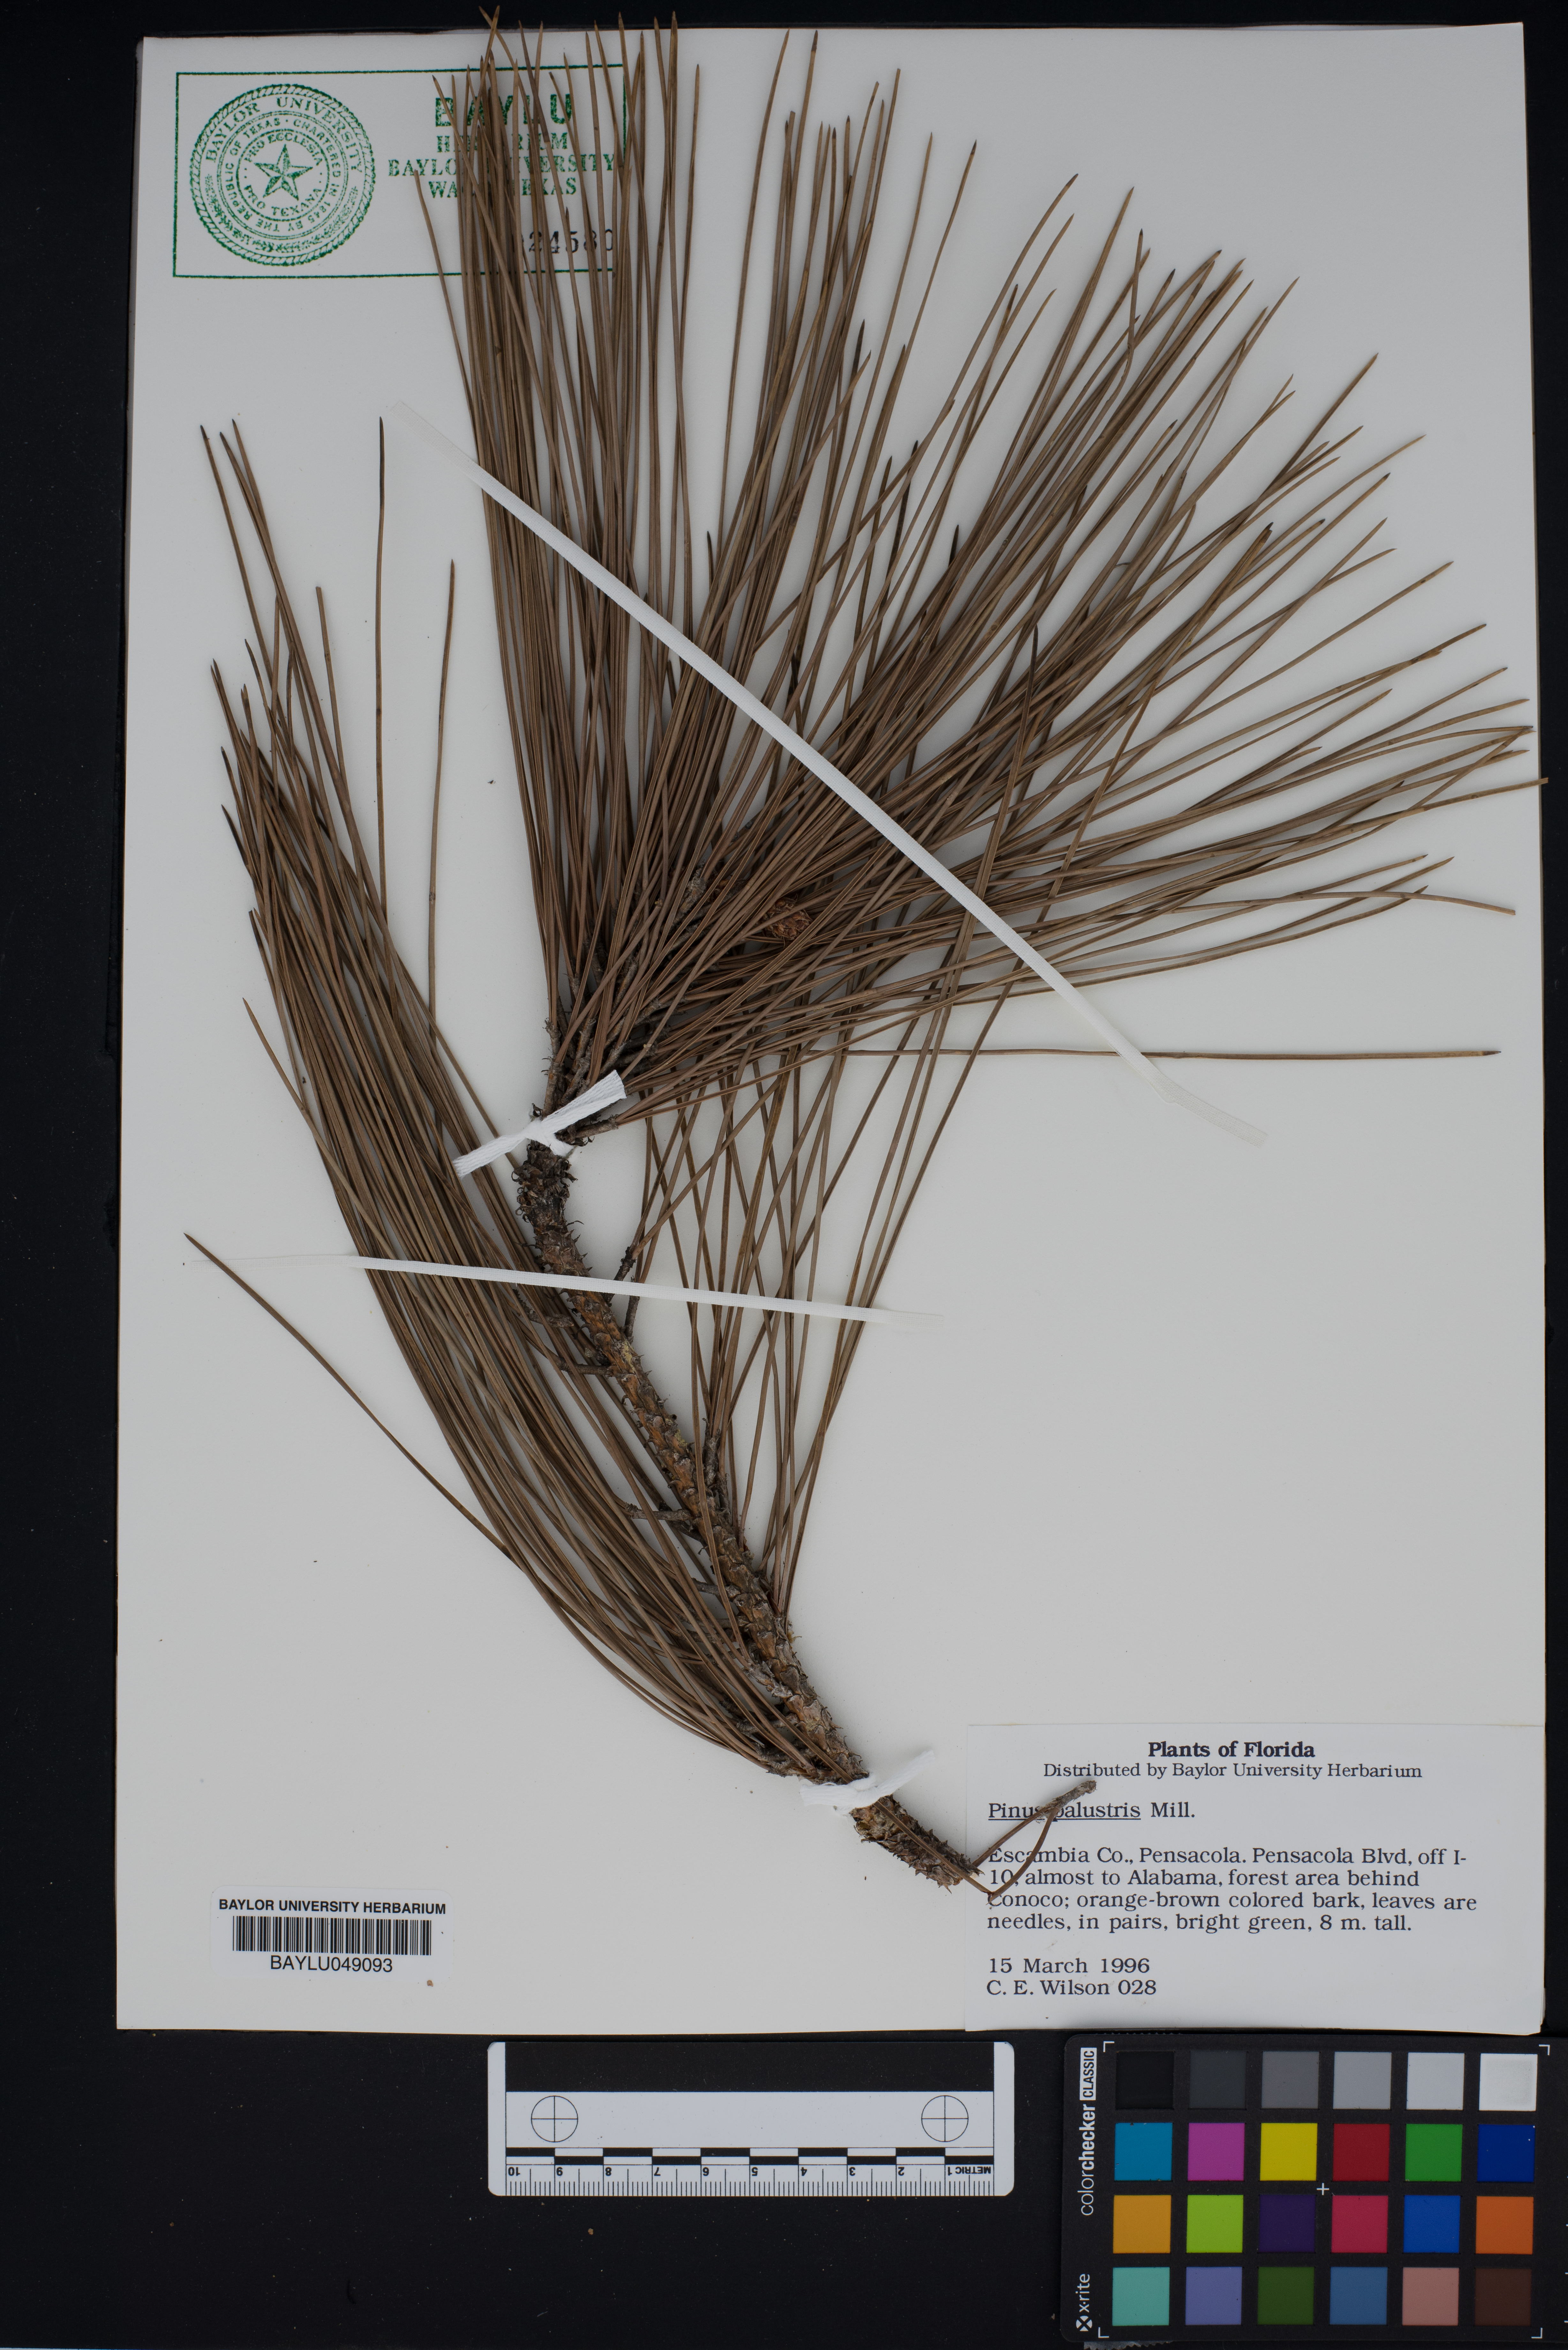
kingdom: Plantae
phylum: Tracheophyta
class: Pinopsida
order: Pinales
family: Pinaceae
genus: Pinus
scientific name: Pinus palustris
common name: Longleaf pine
